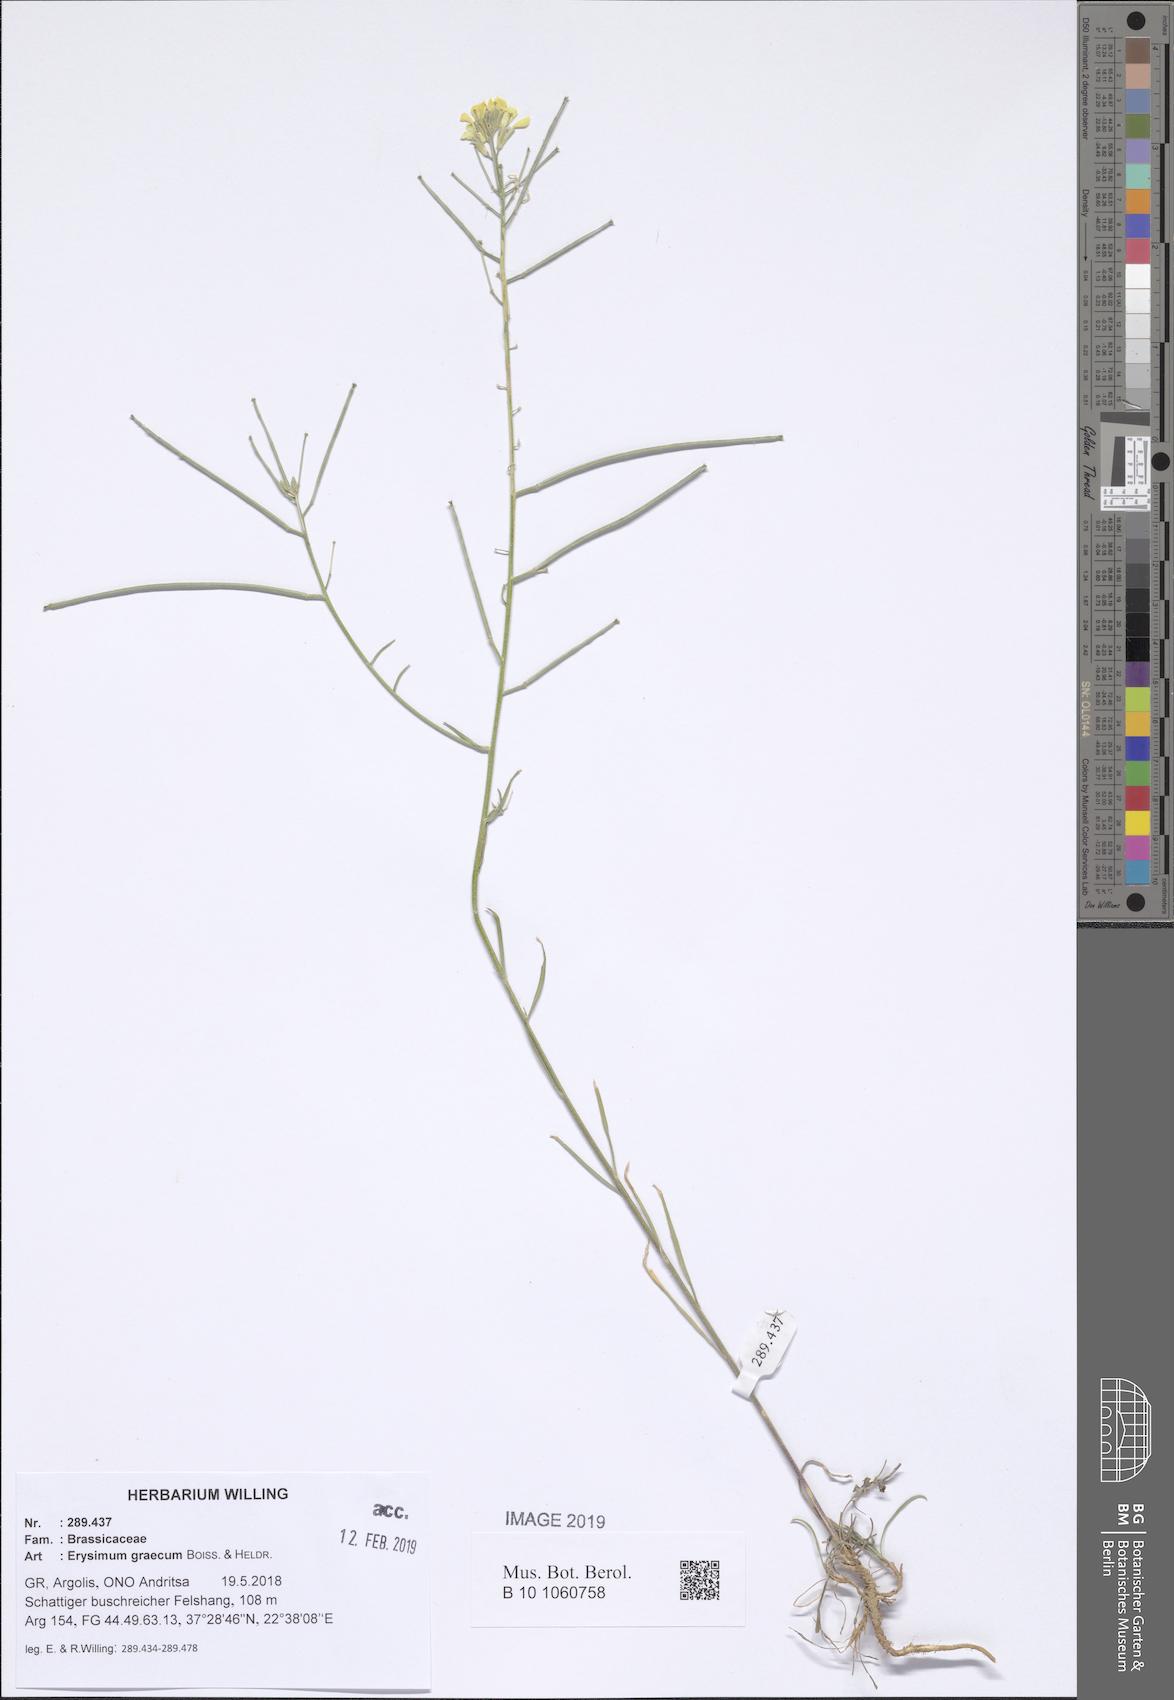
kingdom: Plantae
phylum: Tracheophyta
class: Magnoliopsida
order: Brassicales
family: Brassicaceae
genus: Erysimum
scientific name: Erysimum graecum
